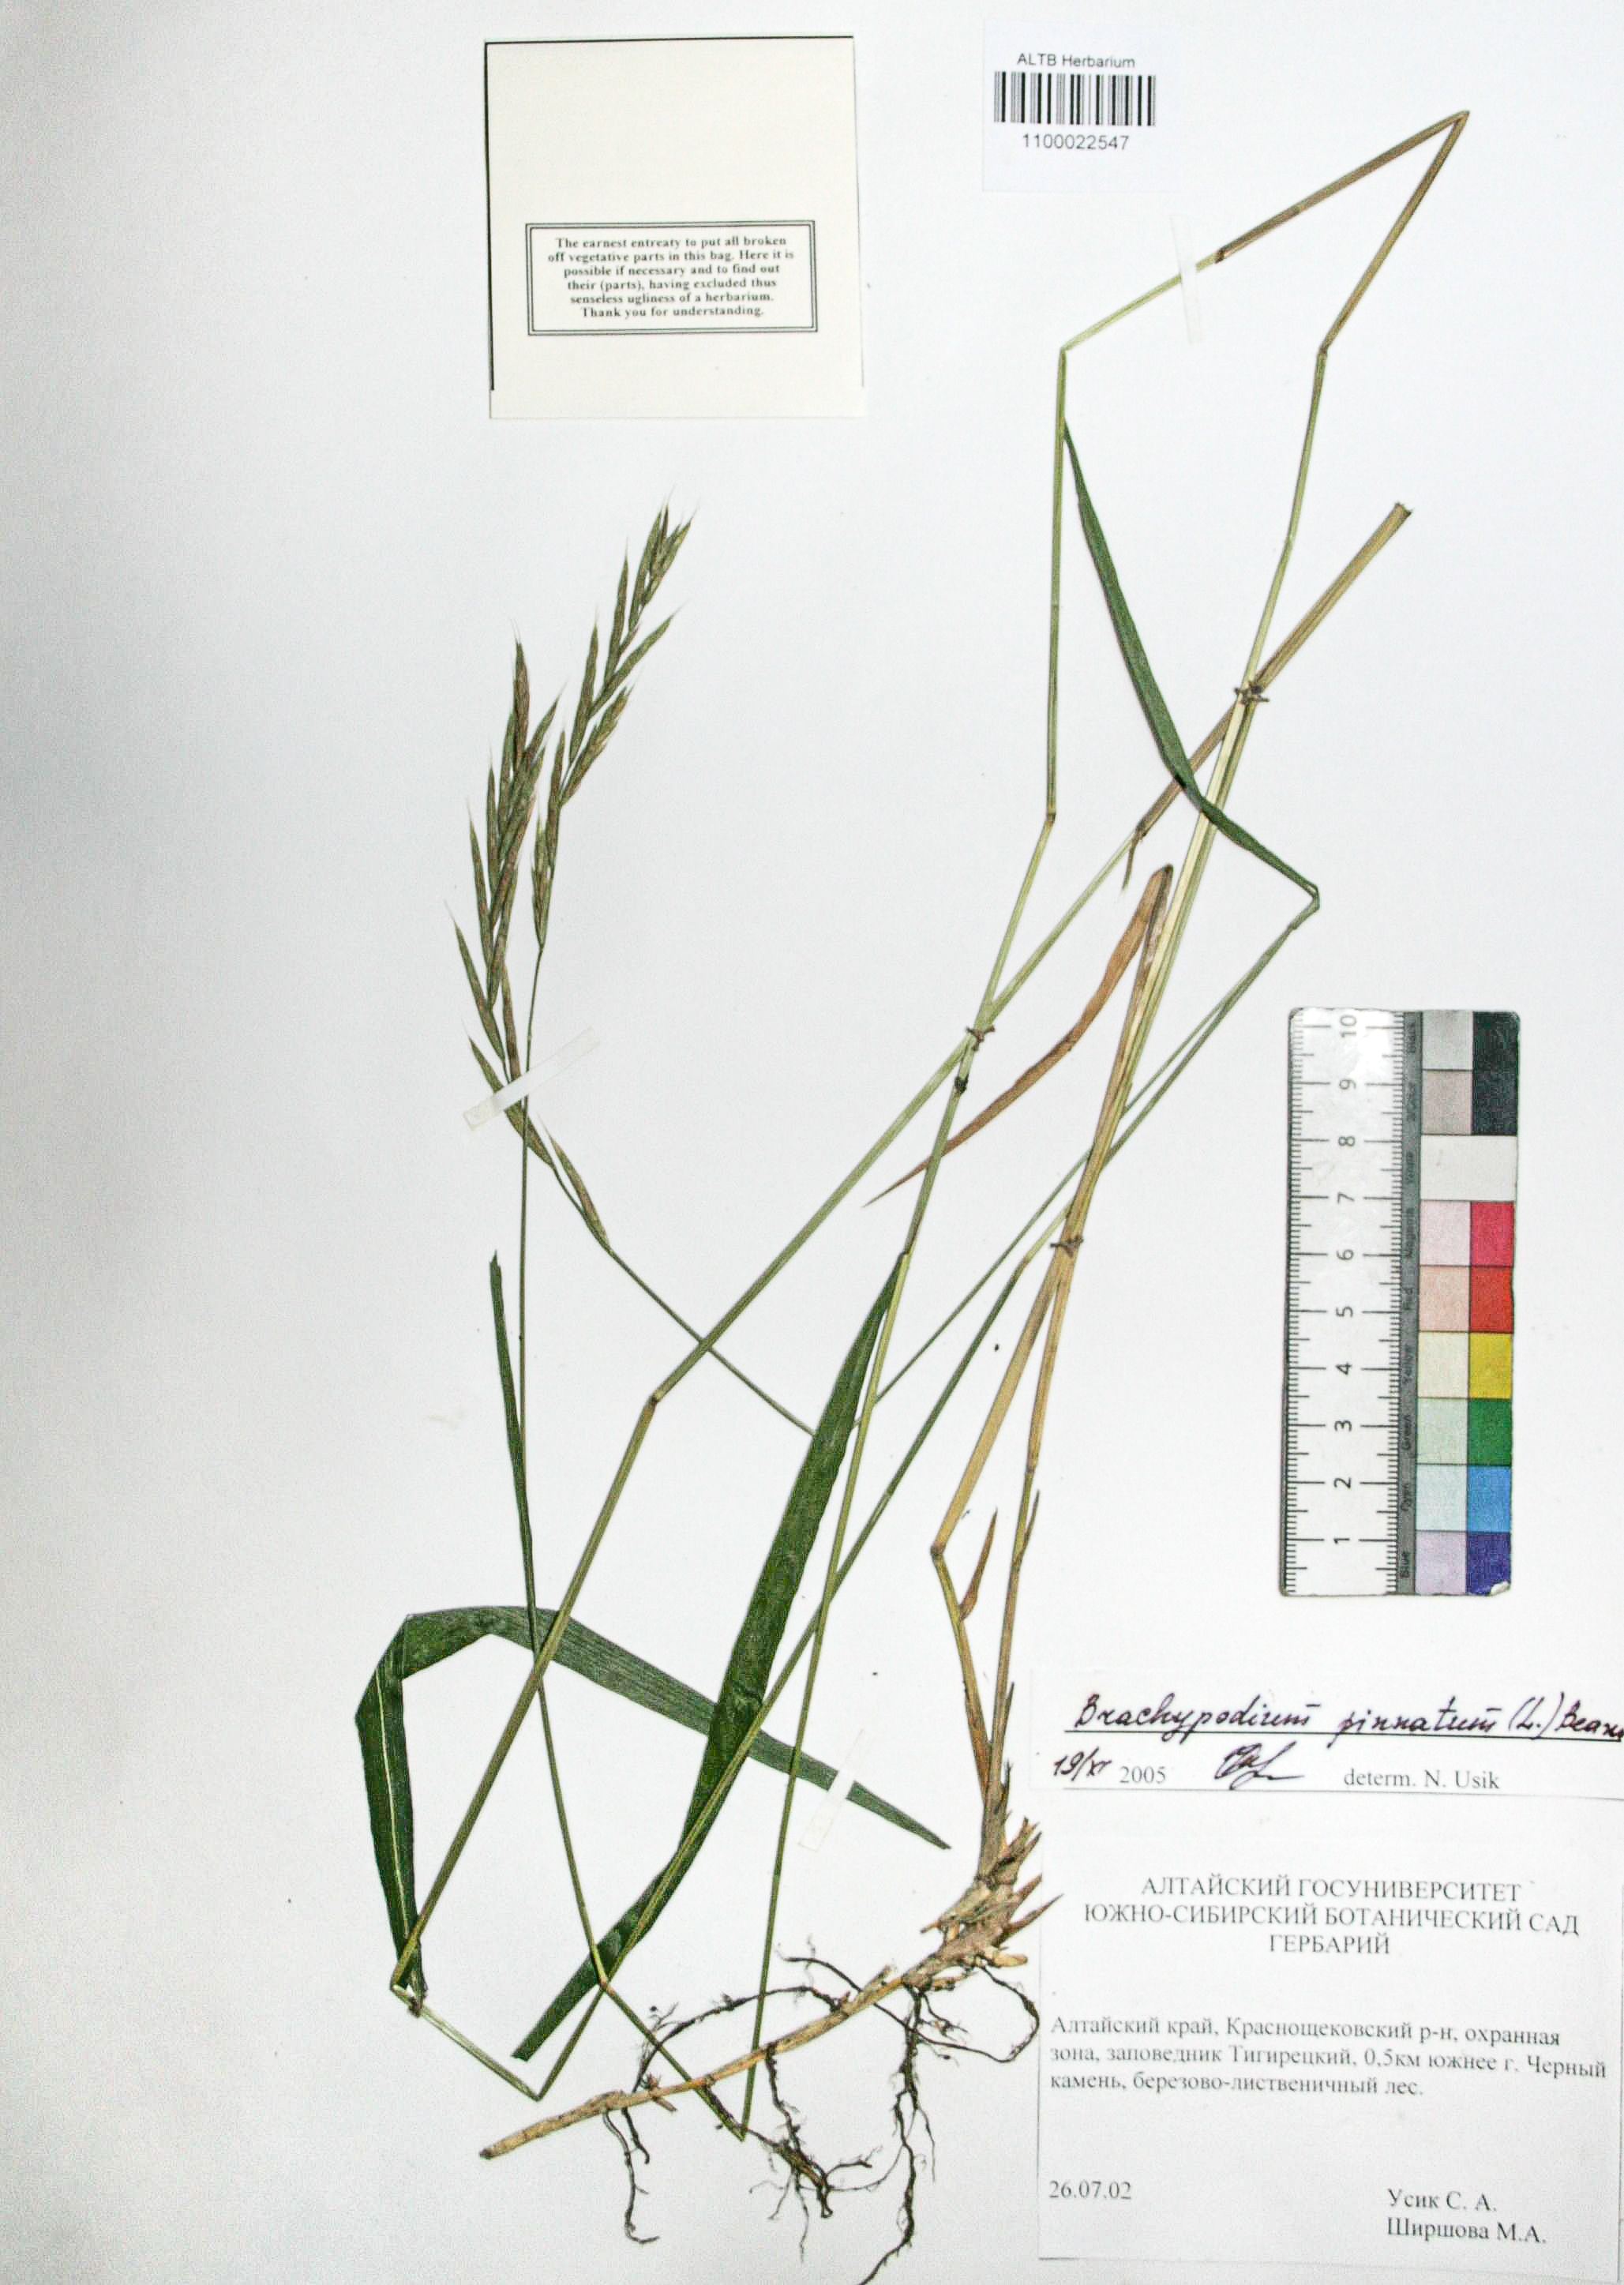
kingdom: Plantae
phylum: Tracheophyta
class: Liliopsida
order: Poales
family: Poaceae
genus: Brachypodium
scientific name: Brachypodium pinnatum
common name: Tor grass
